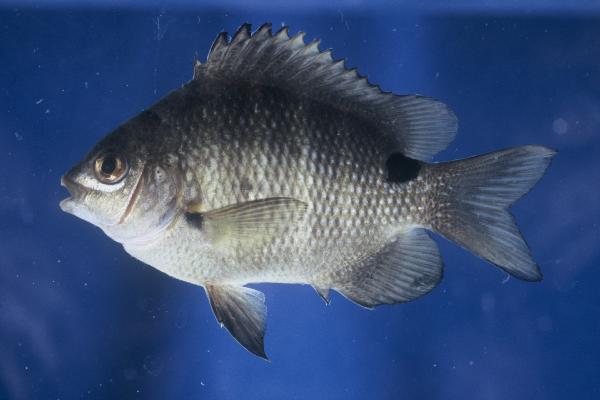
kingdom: Animalia
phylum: Chordata
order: Perciformes
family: Pomacentridae
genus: Abudefduf
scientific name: Abudefduf sordidus
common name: Blackspot sergeant
